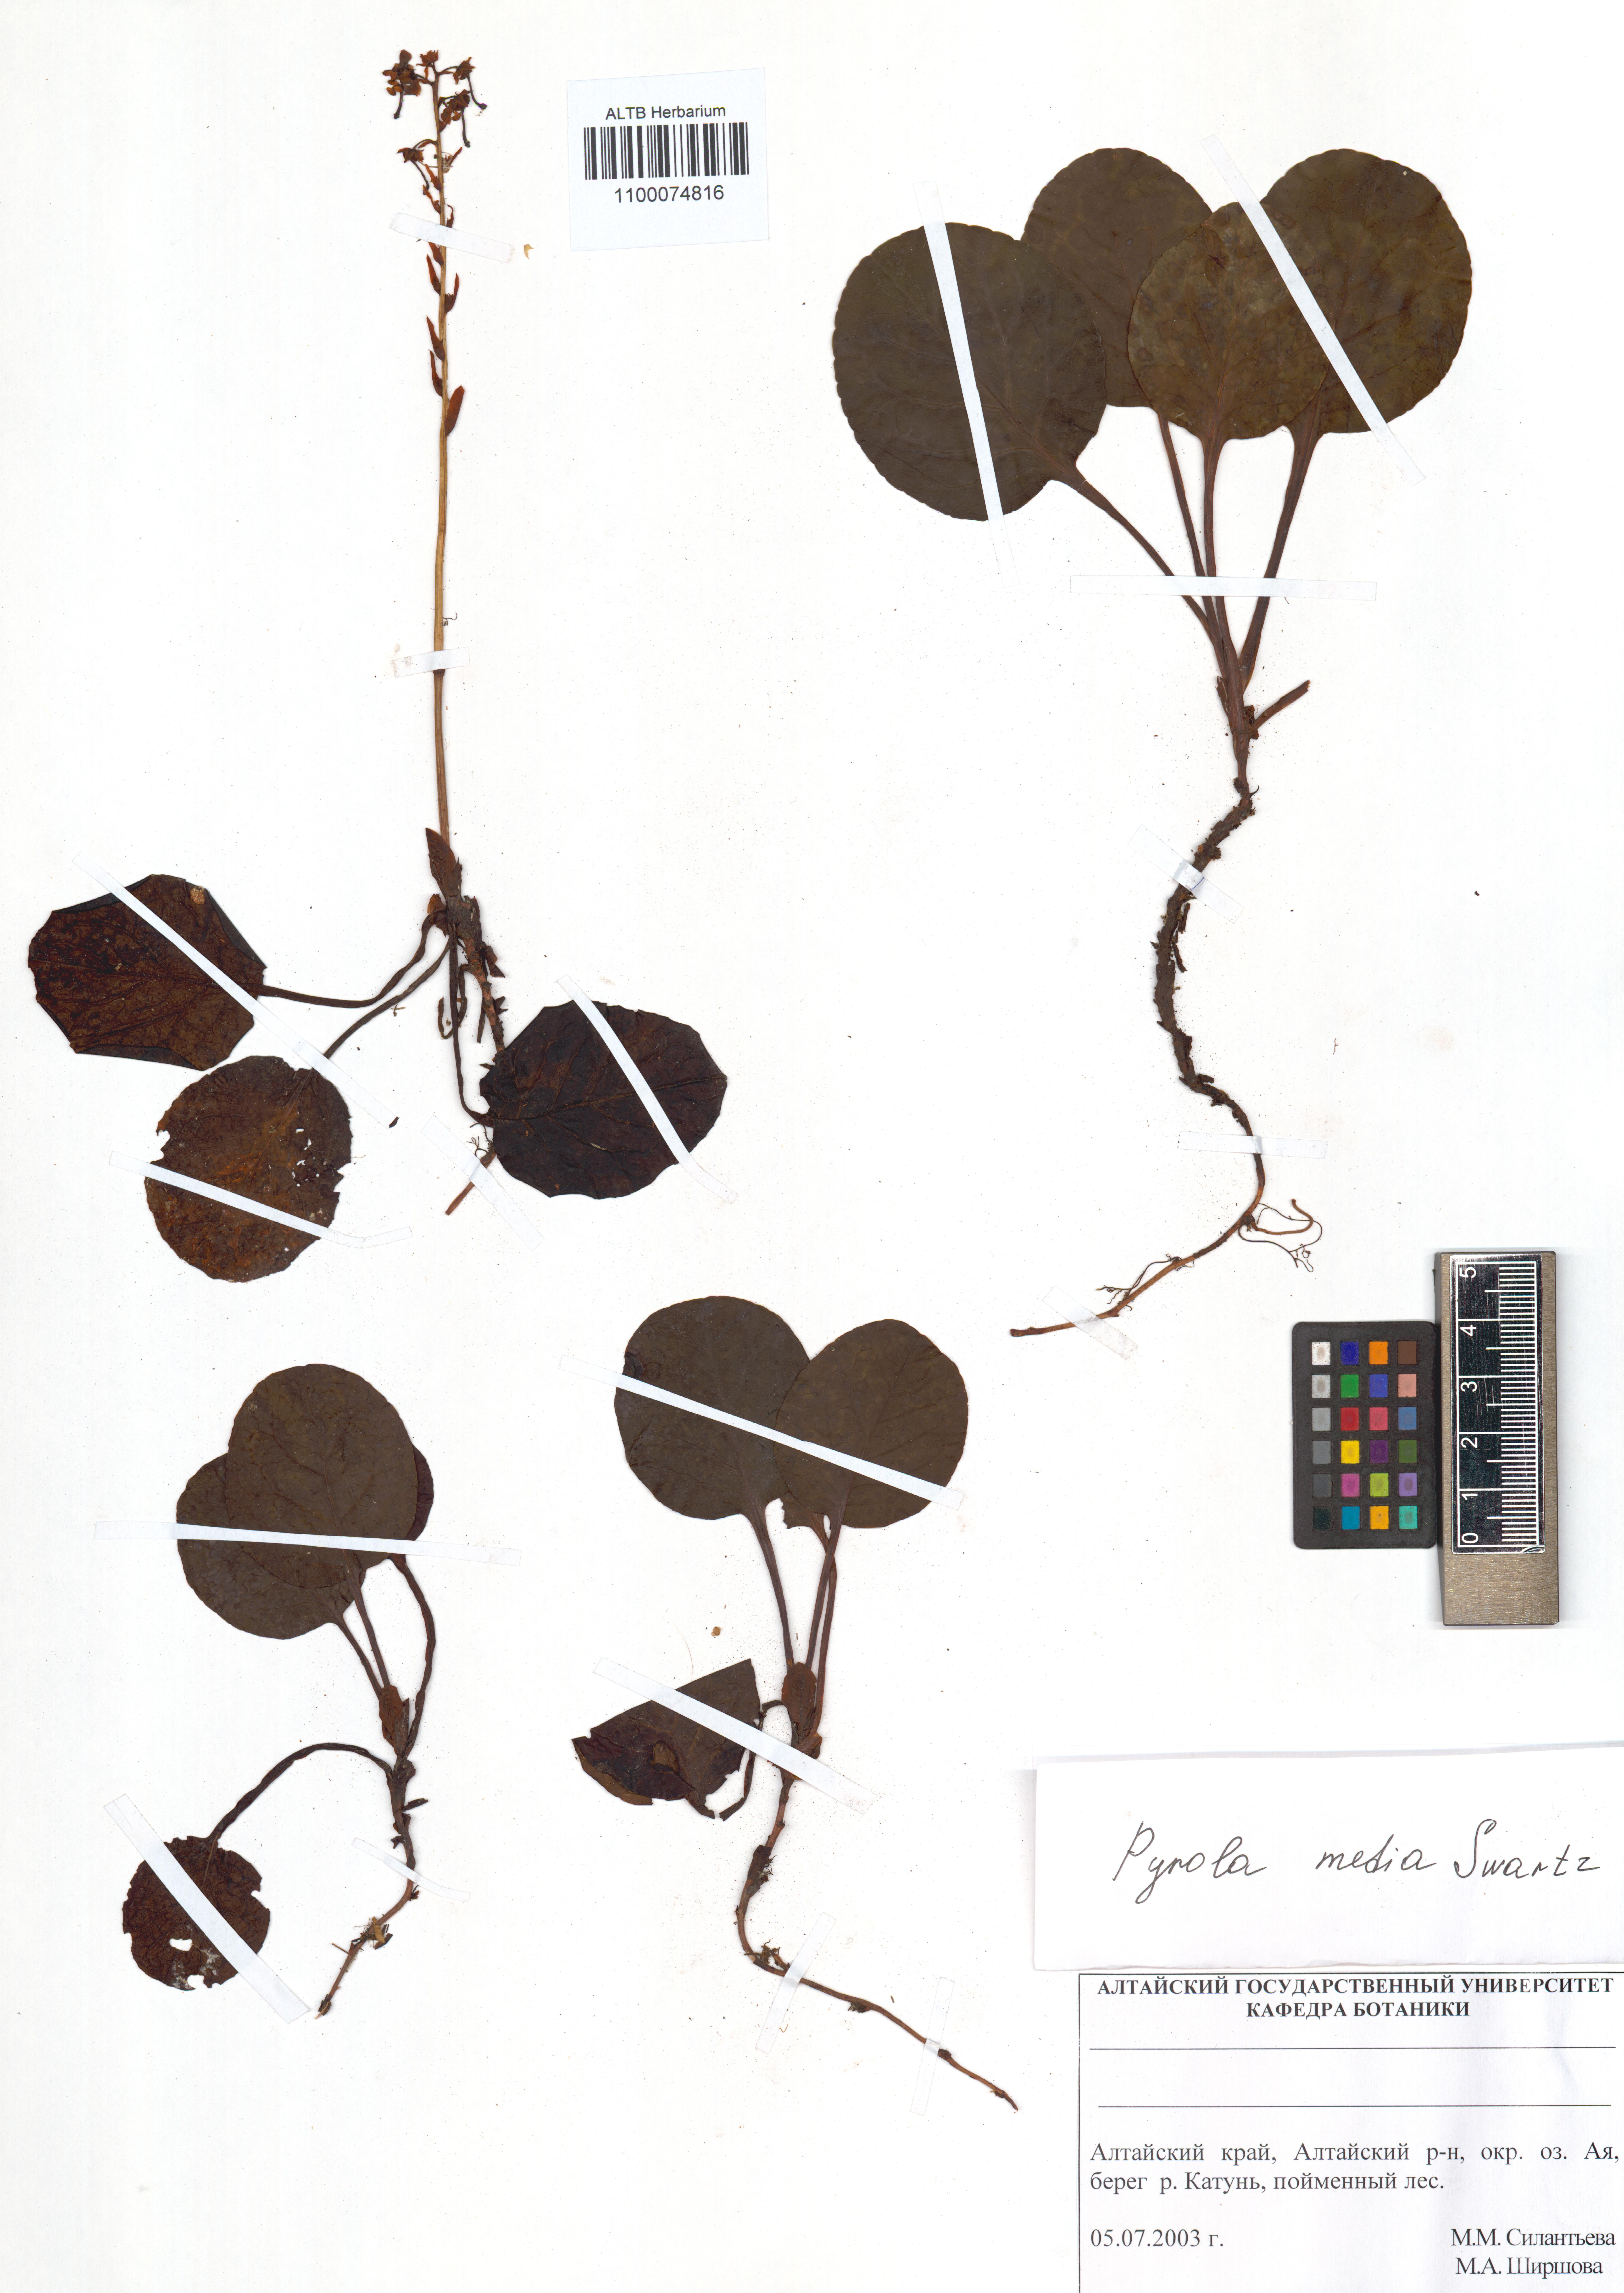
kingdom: Plantae
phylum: Tracheophyta
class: Magnoliopsida
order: Ericales
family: Ericaceae
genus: Pyrola
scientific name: Pyrola media
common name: Intermediate wintergreen
